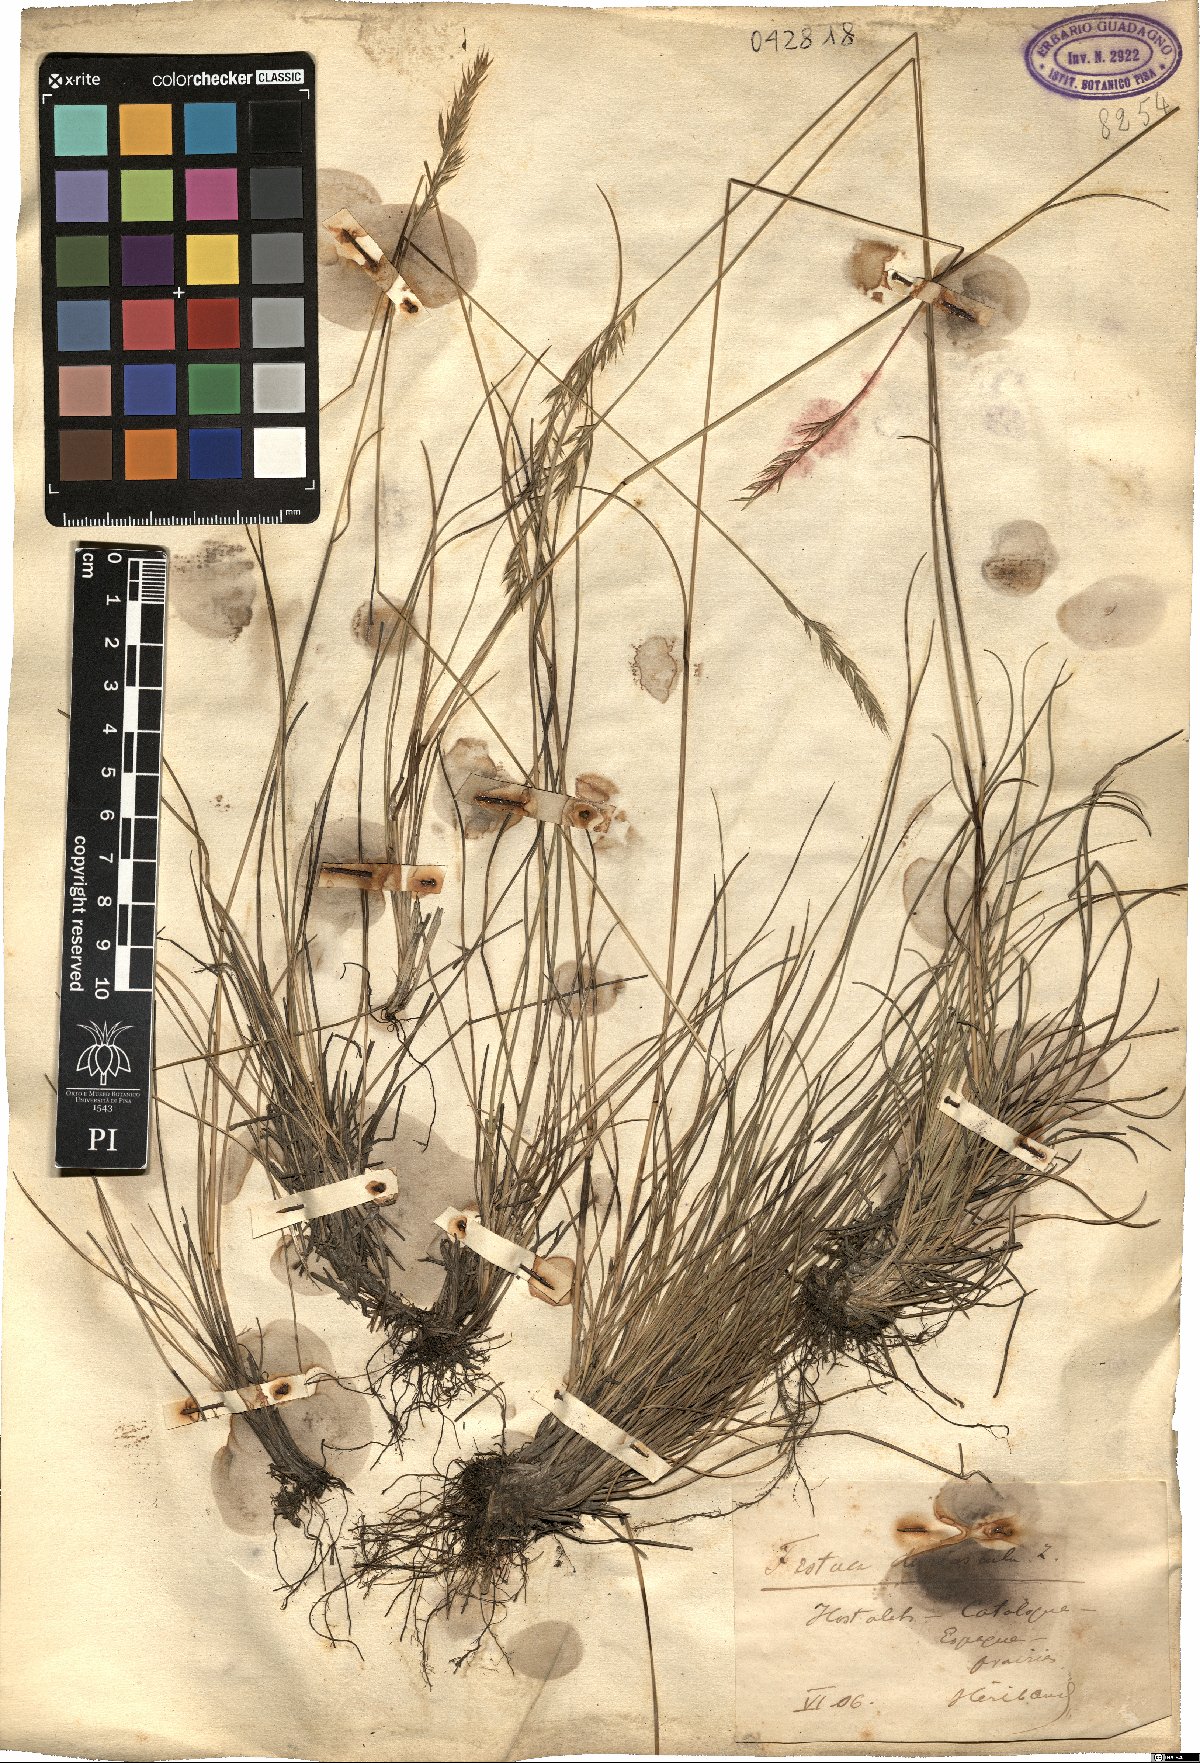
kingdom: Plantae
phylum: Tracheophyta
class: Liliopsida
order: Poales
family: Poaceae
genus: Festuca
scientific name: Festuca rubra
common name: Red fescue
